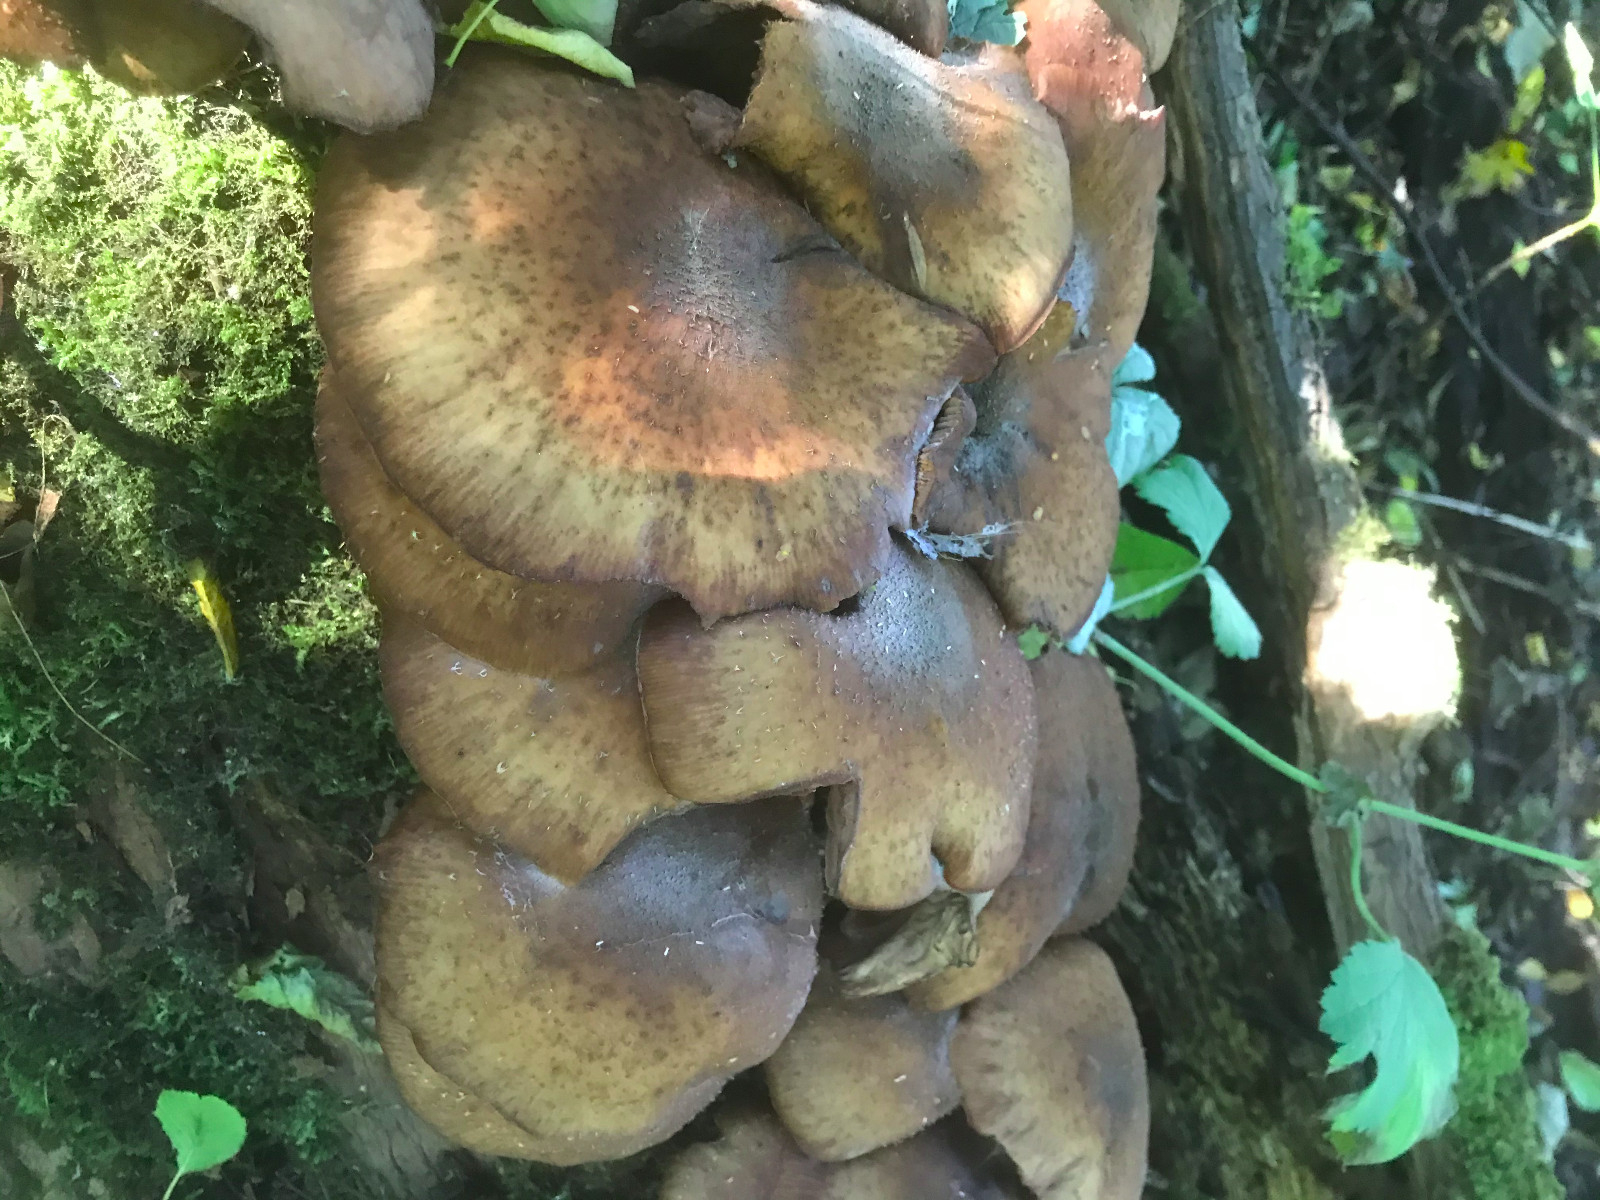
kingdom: Fungi
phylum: Basidiomycota
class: Agaricomycetes
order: Agaricales
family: Physalacriaceae
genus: Armillaria
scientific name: Armillaria lutea
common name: køllestokket honningsvamp
